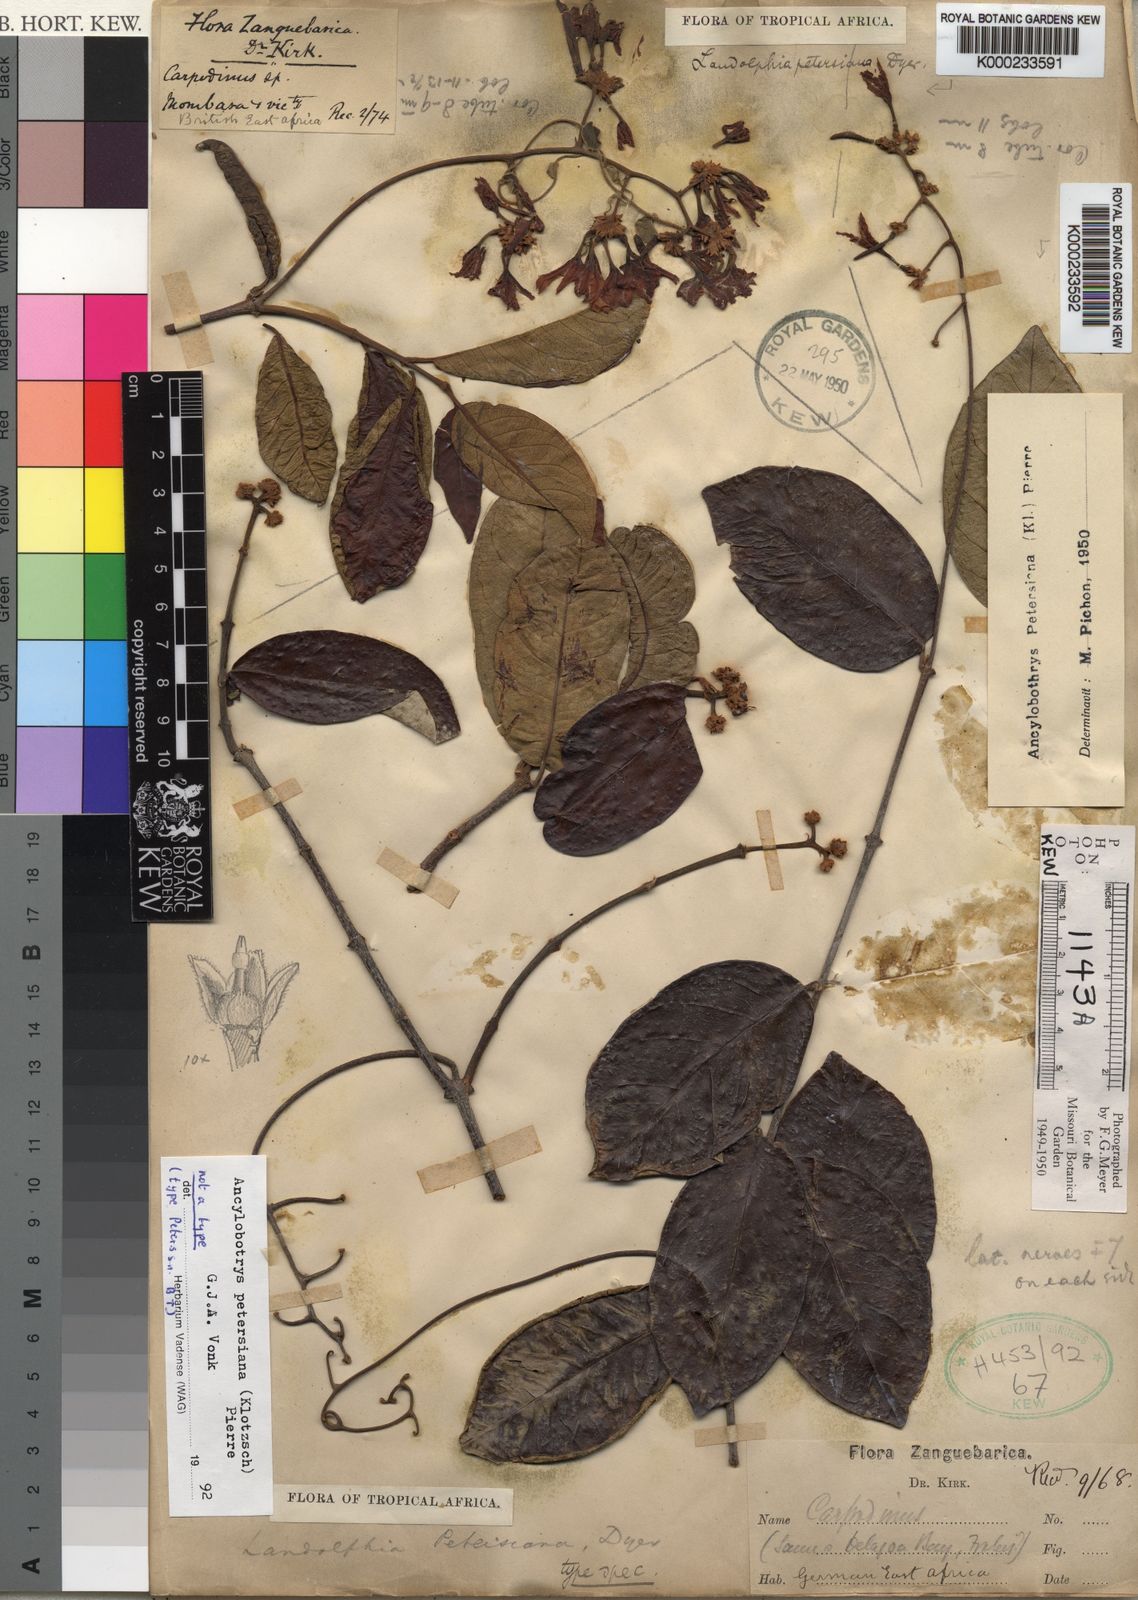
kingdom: Plantae
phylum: Tracheophyta
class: Magnoliopsida
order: Gentianales
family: Apocynaceae
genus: Ancylobothrys
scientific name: Ancylobothrys petersiana
